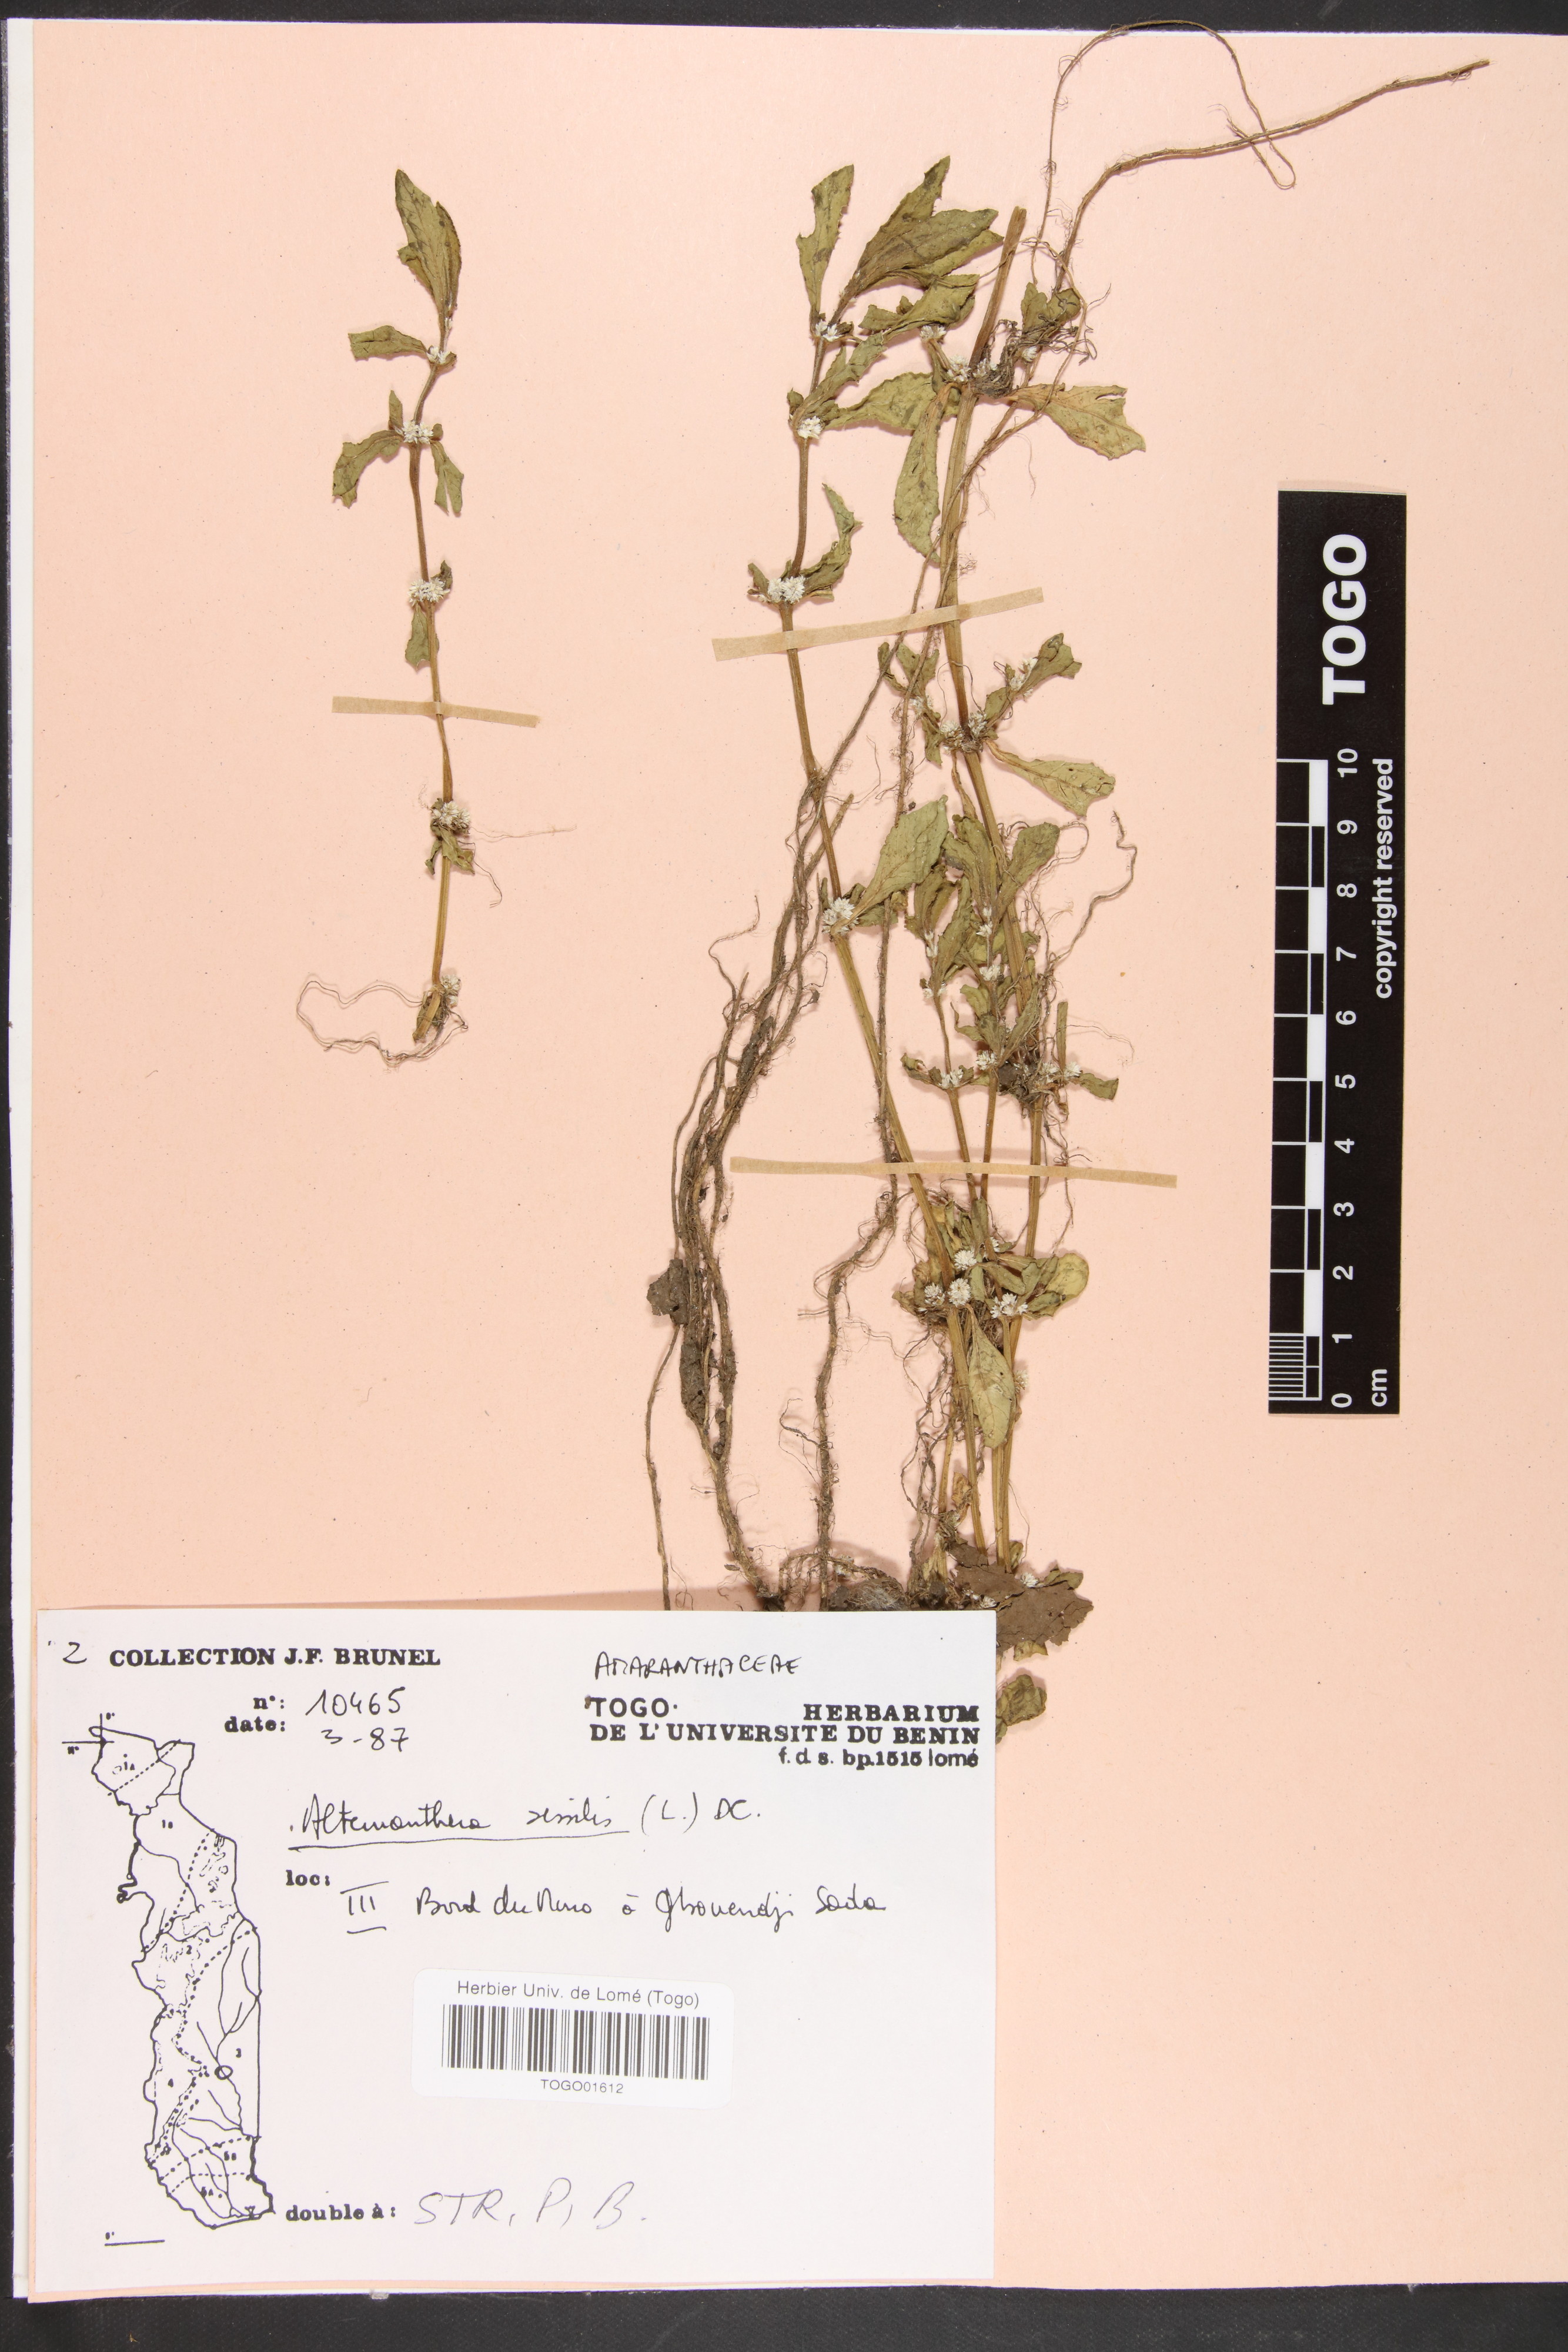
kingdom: Plantae
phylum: Tracheophyta
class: Magnoliopsida
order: Caryophyllales
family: Amaranthaceae
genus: Alternanthera
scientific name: Alternanthera sessilis
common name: Sessile joyweed
